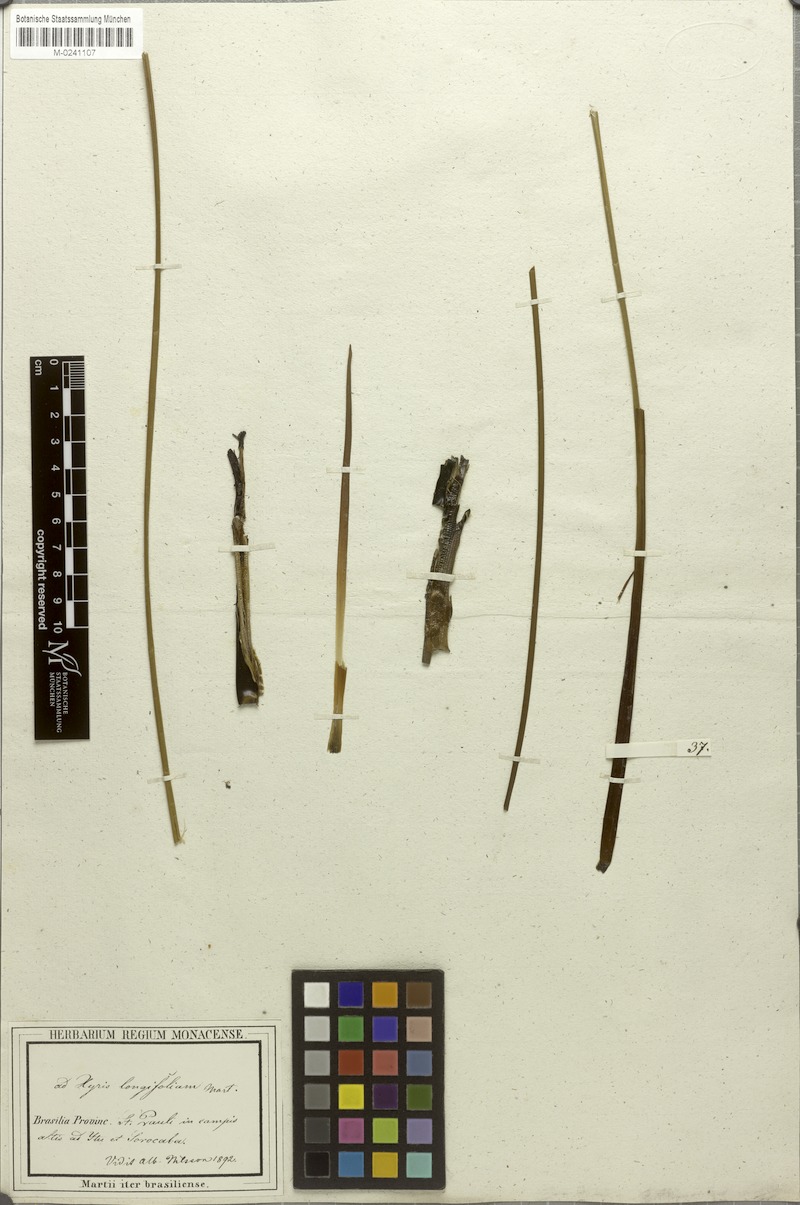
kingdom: Plantae
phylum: Tracheophyta
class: Liliopsida
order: Poales
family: Xyridaceae
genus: Xyris
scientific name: Xyris longifolia
